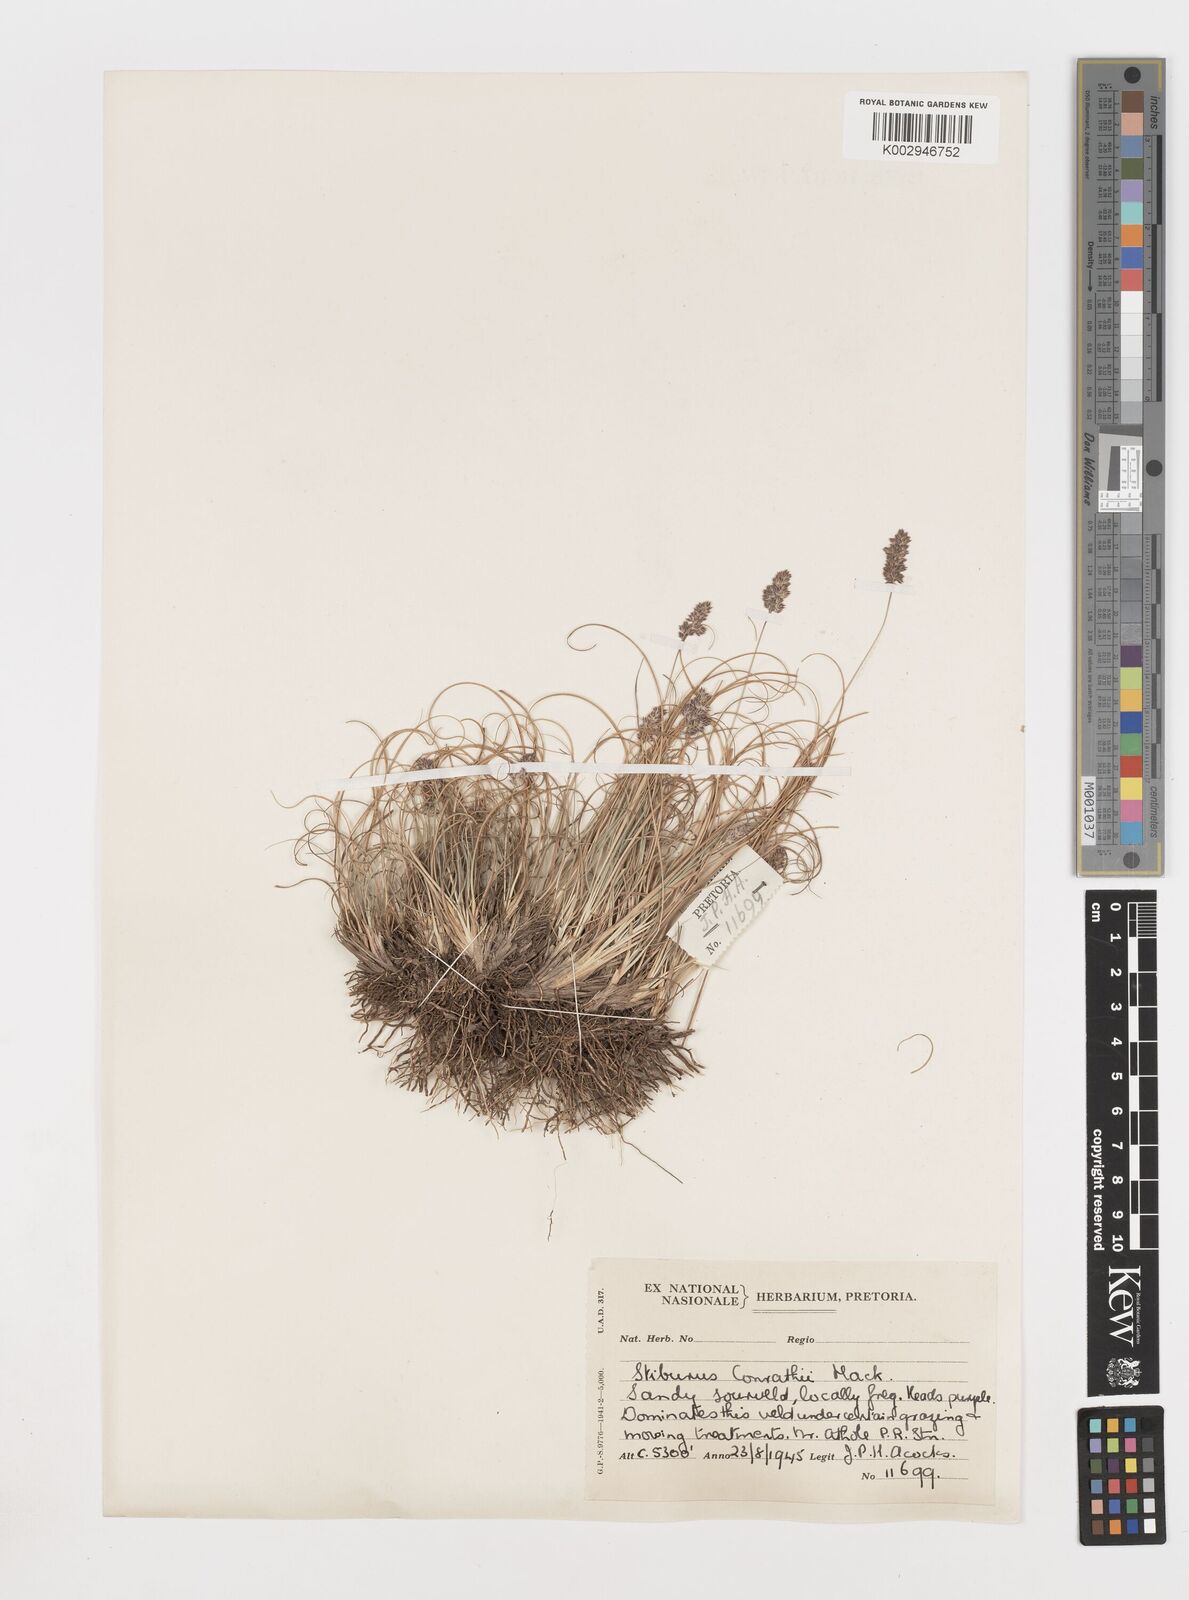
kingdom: Plantae
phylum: Tracheophyta
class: Liliopsida
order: Poales
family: Poaceae
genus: Stiburus
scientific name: Stiburus conrathii
